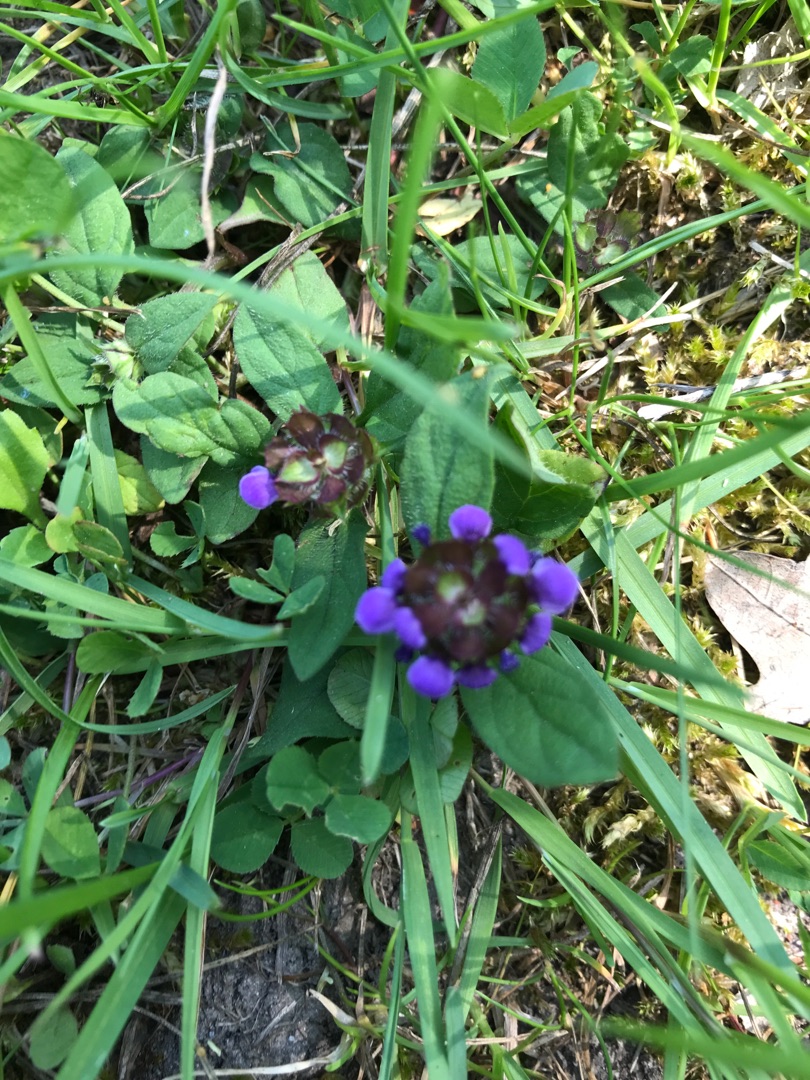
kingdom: Plantae
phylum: Tracheophyta
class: Magnoliopsida
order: Lamiales
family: Lamiaceae
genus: Prunella
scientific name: Prunella vulgaris
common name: Almindelig brunelle
